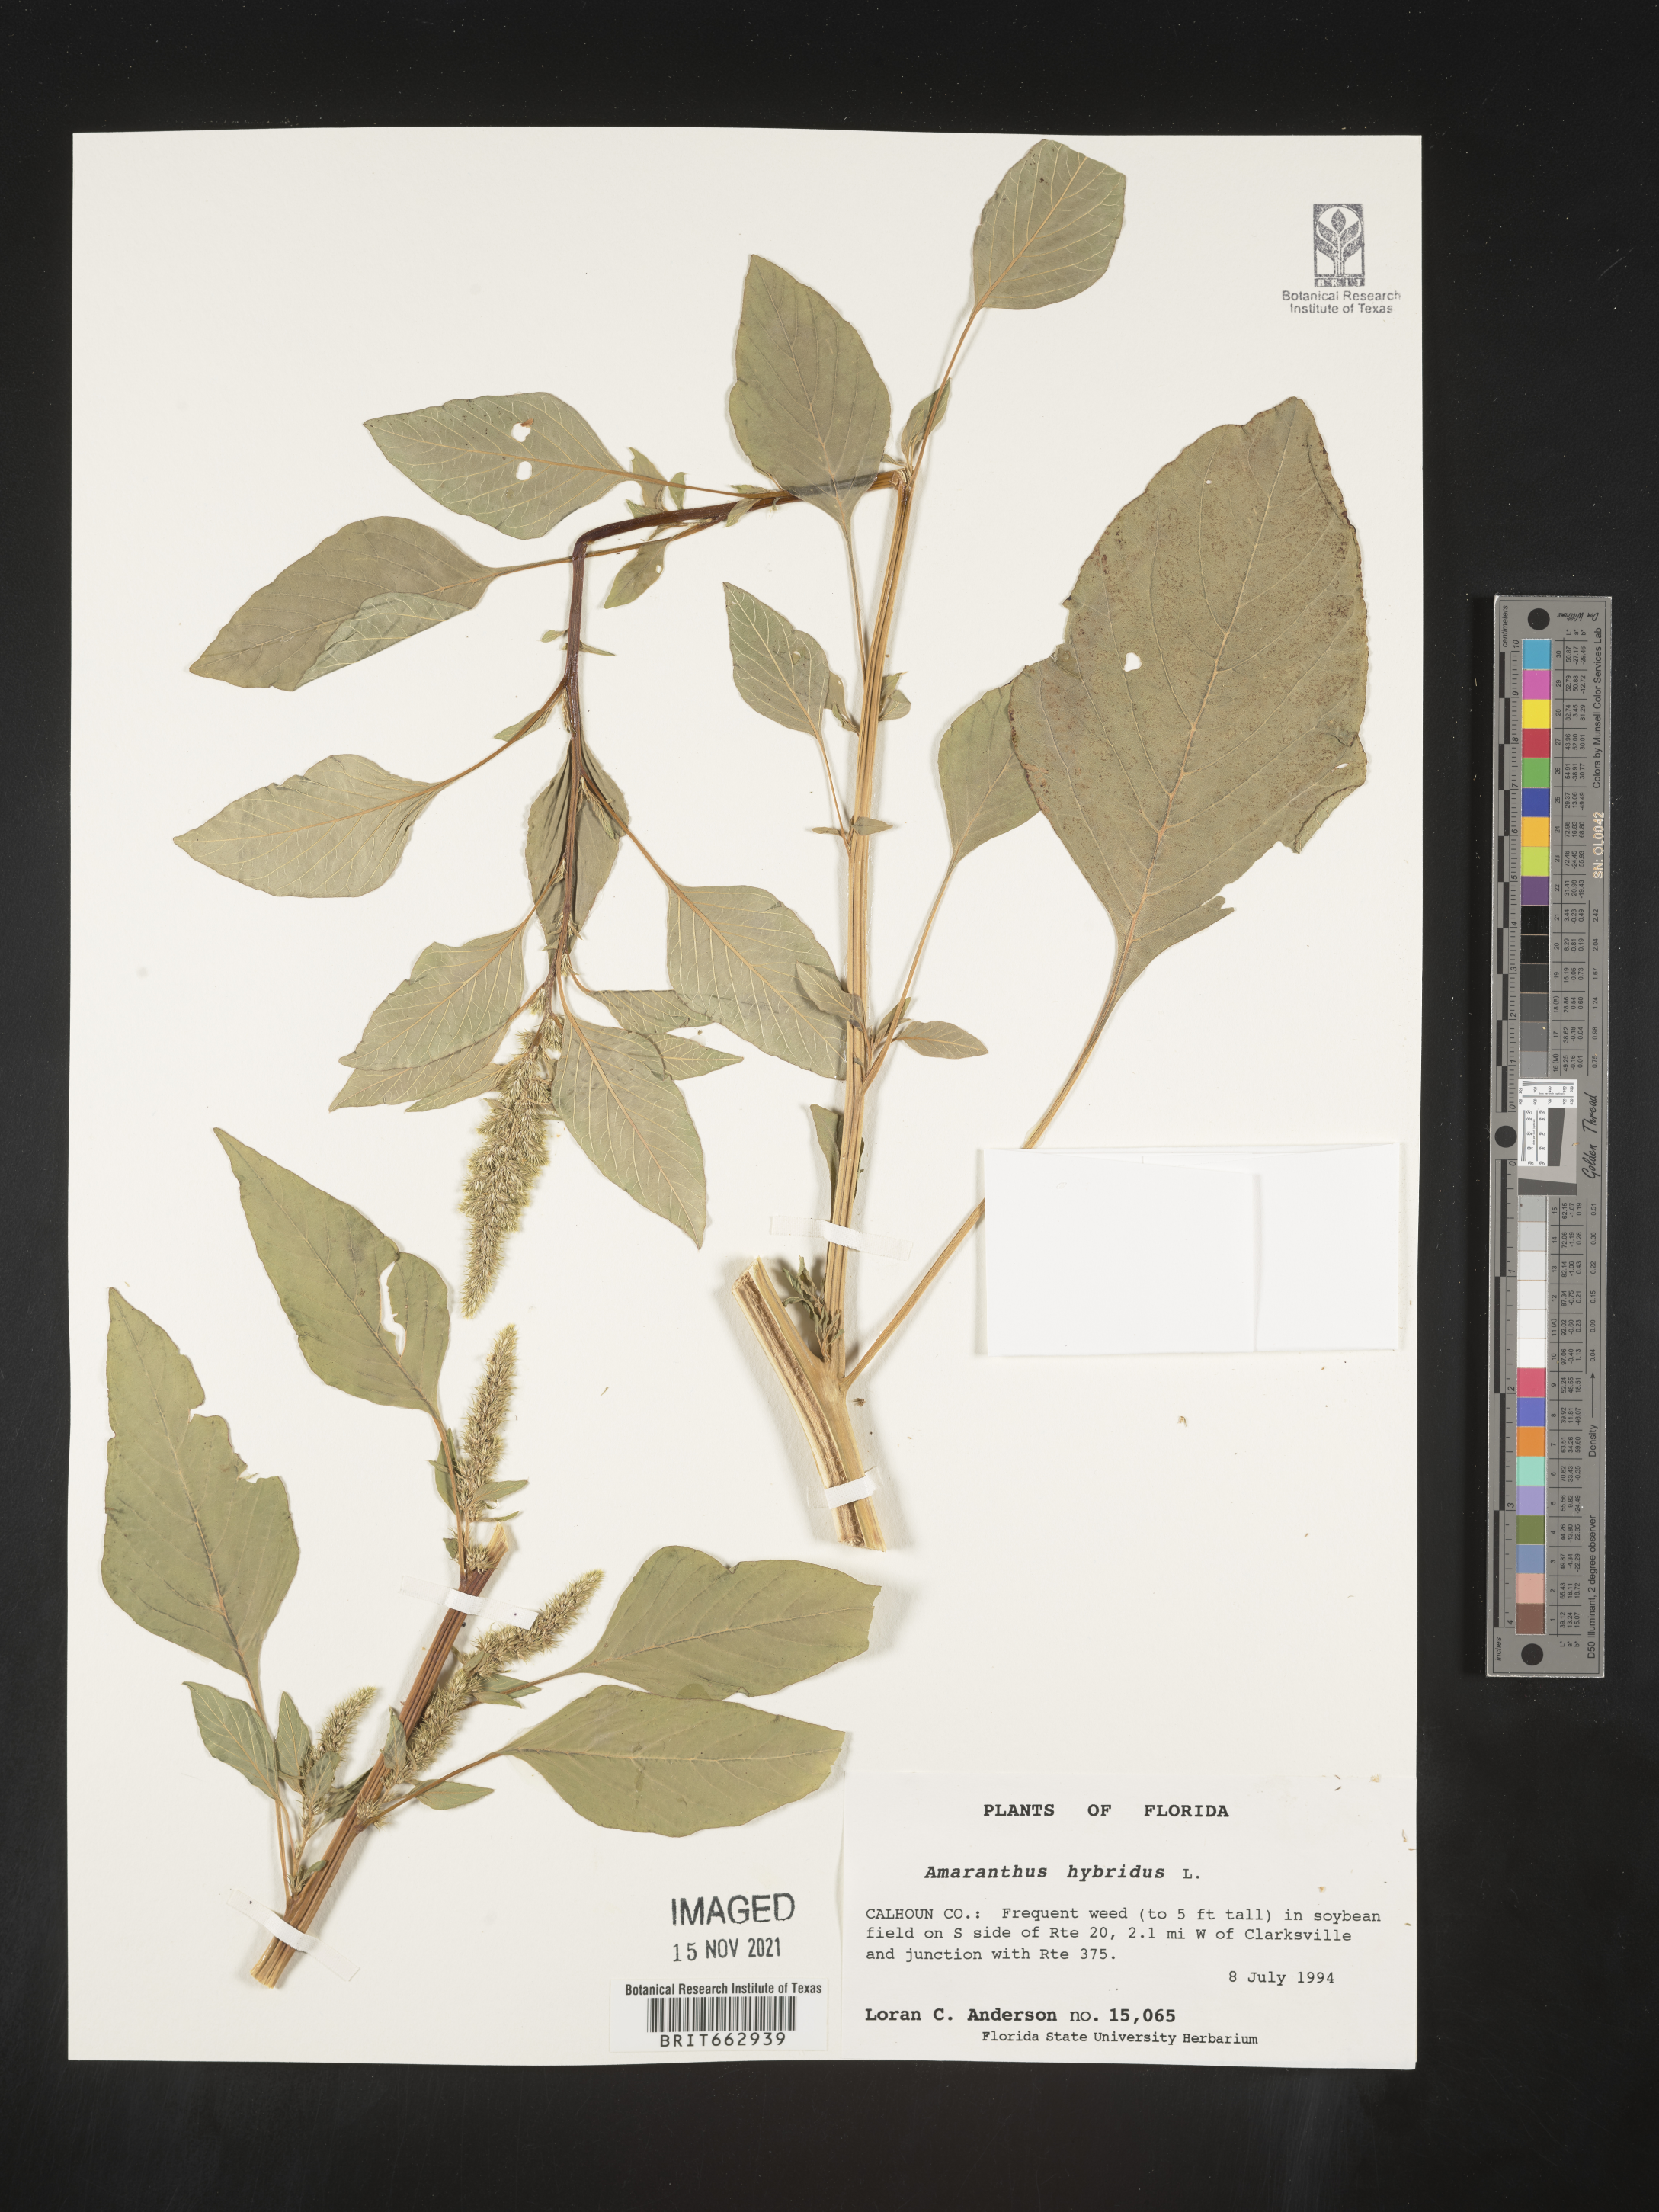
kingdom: Plantae
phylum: Tracheophyta
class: Magnoliopsida
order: Caryophyllales
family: Amaranthaceae
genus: Amaranthus
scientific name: Amaranthus hybridus
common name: Green amaranth
